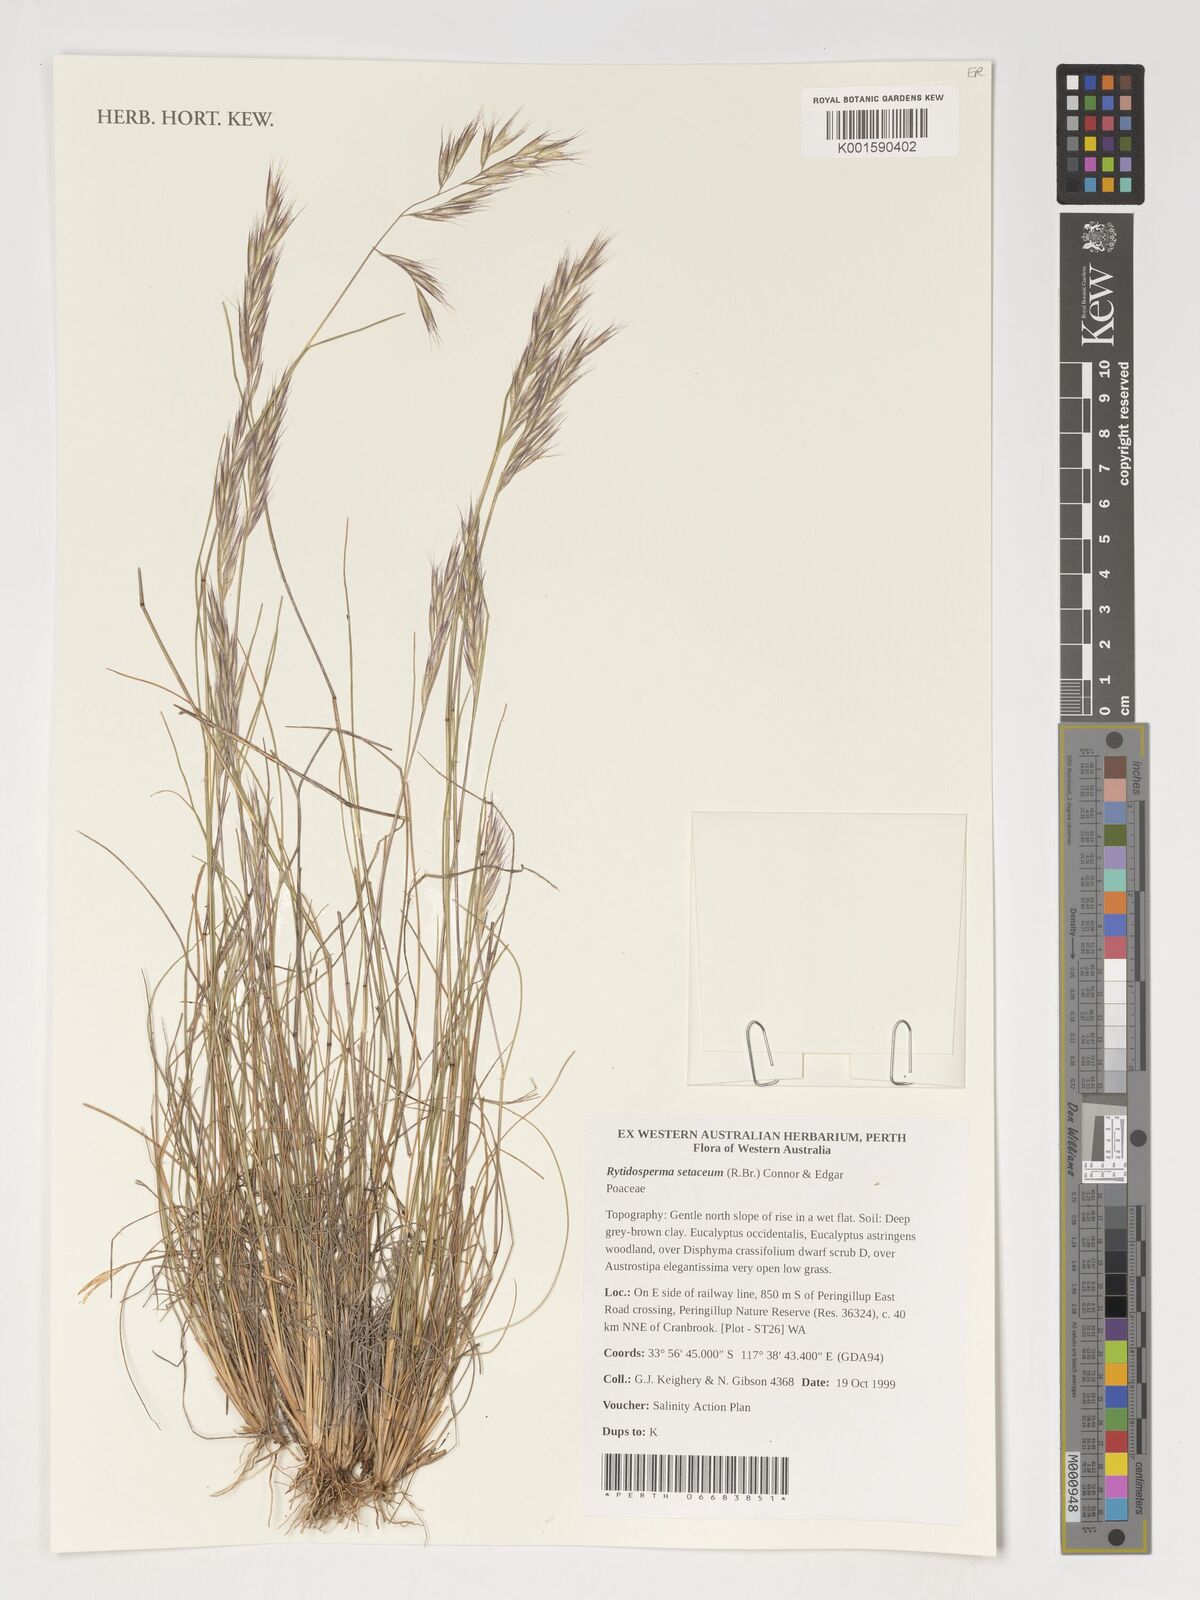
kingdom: Plantae
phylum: Tracheophyta
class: Liliopsida
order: Poales
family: Poaceae
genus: Rytidosperma
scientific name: Rytidosperma setaceum
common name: Small-flower wallaby grass
